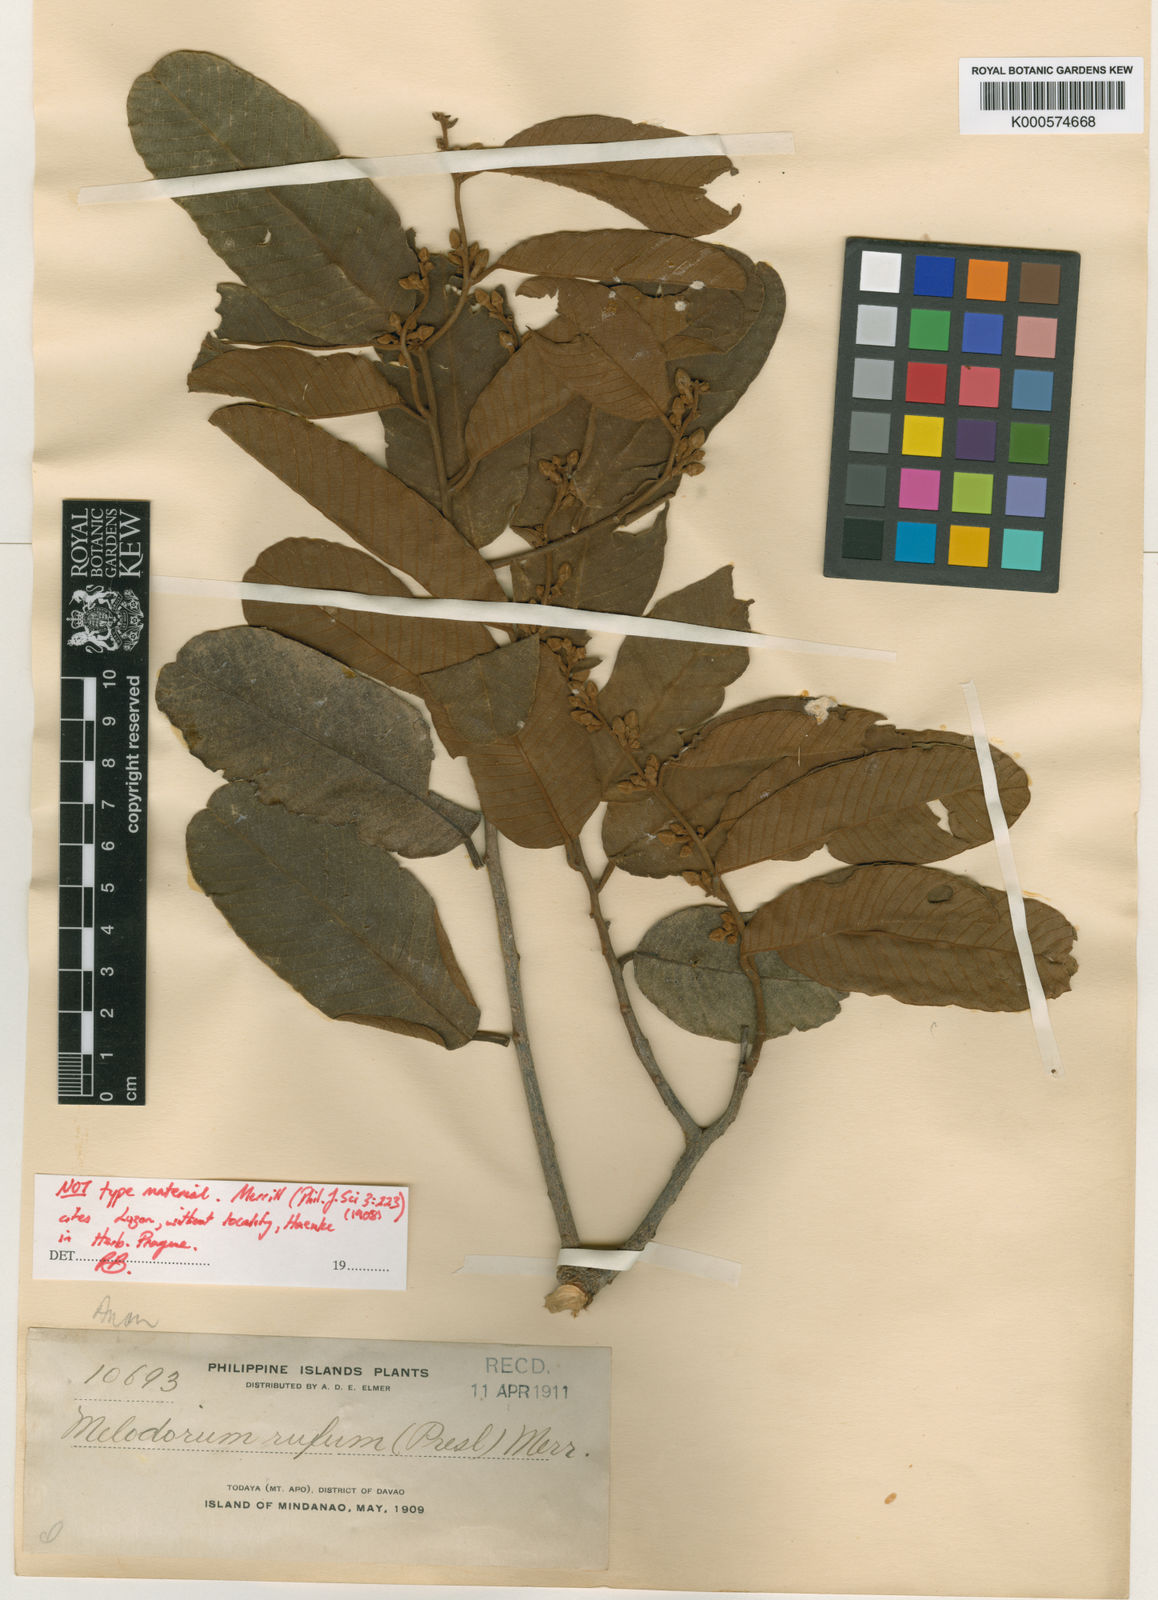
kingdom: Plantae
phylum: Tracheophyta
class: Magnoliopsida
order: Magnoliales
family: Annonaceae
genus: Fissistigma
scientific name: Fissistigma latifolium
